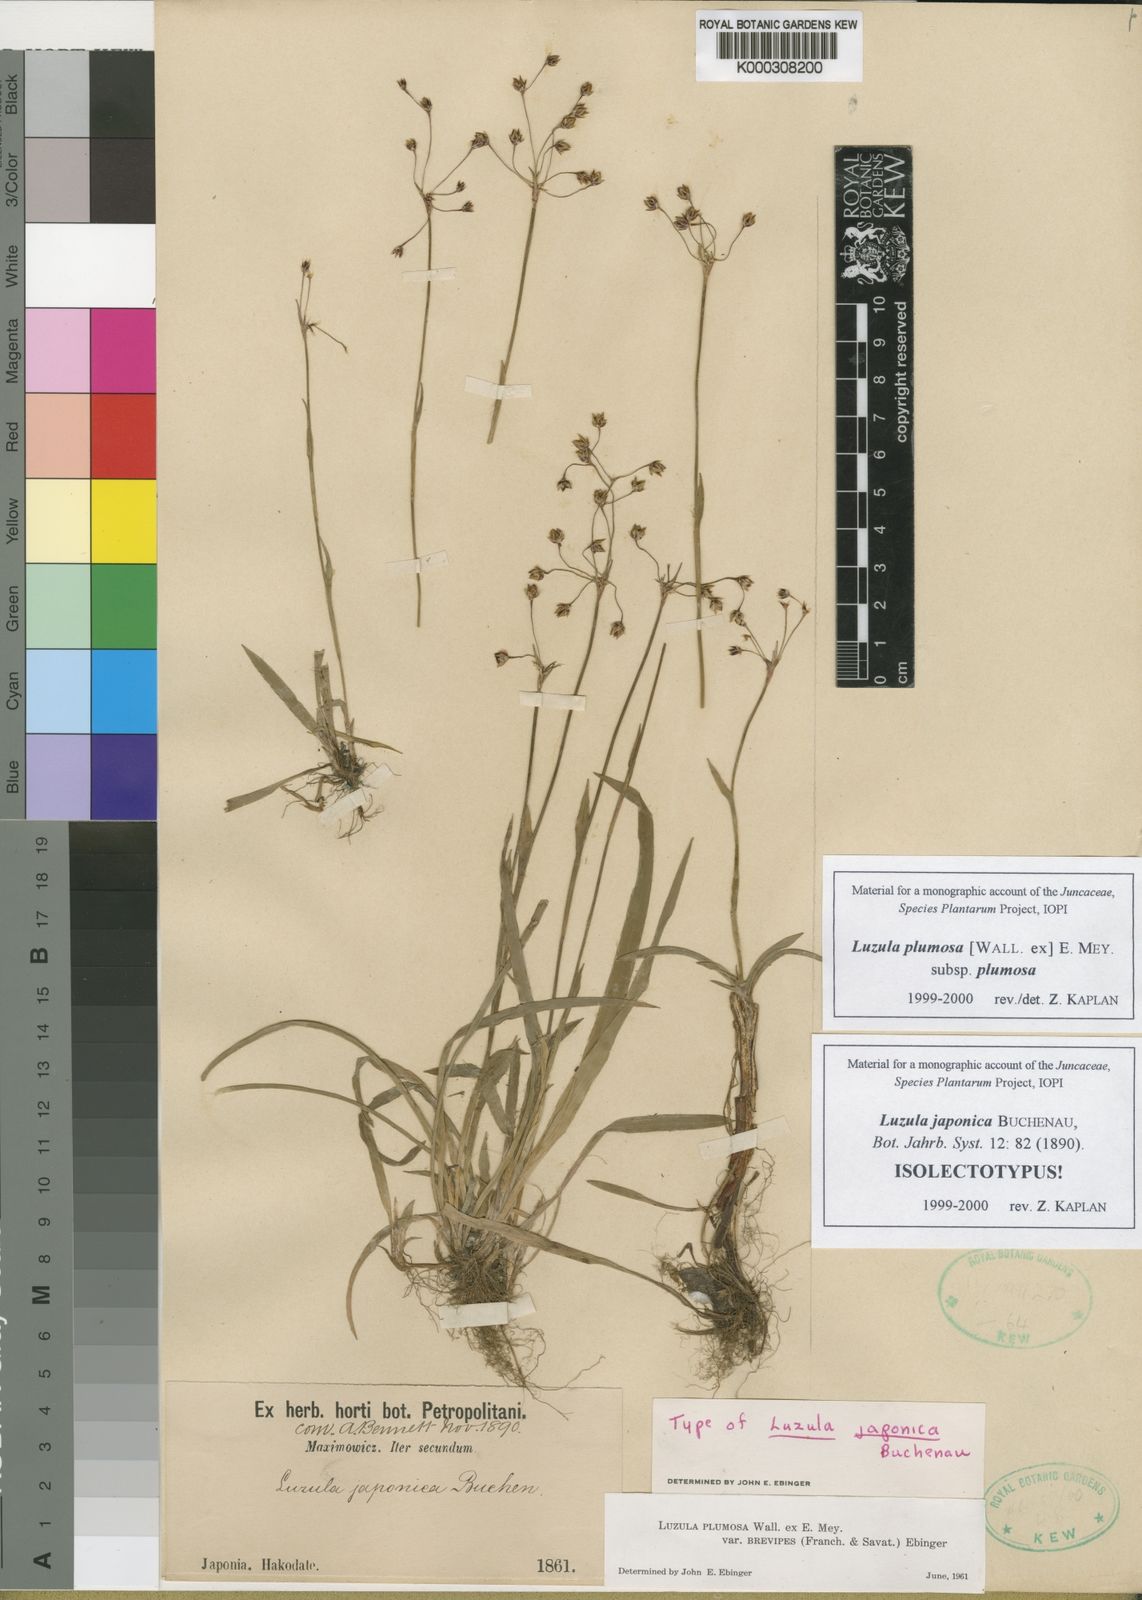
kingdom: Plantae
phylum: Tracheophyta
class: Liliopsida
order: Poales
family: Juncaceae
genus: Luzula
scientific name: Luzula plumosa
